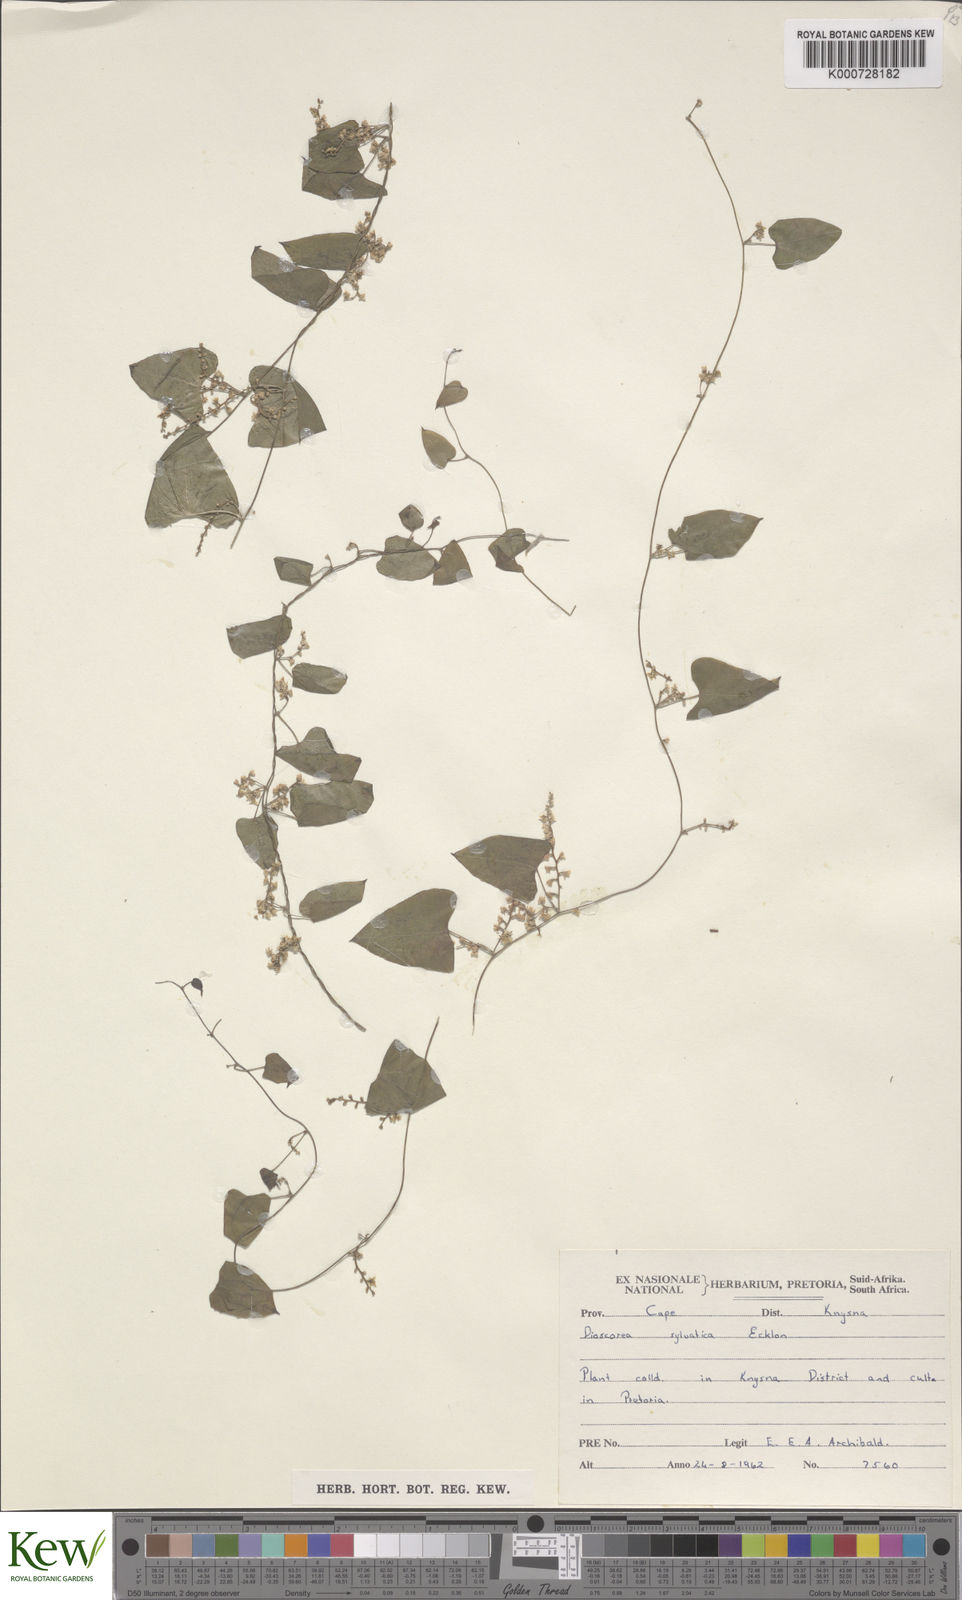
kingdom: Plantae
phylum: Tracheophyta
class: Liliopsida
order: Dioscoreales
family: Dioscoreaceae
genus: Dioscorea
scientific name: Dioscorea sylvatica
